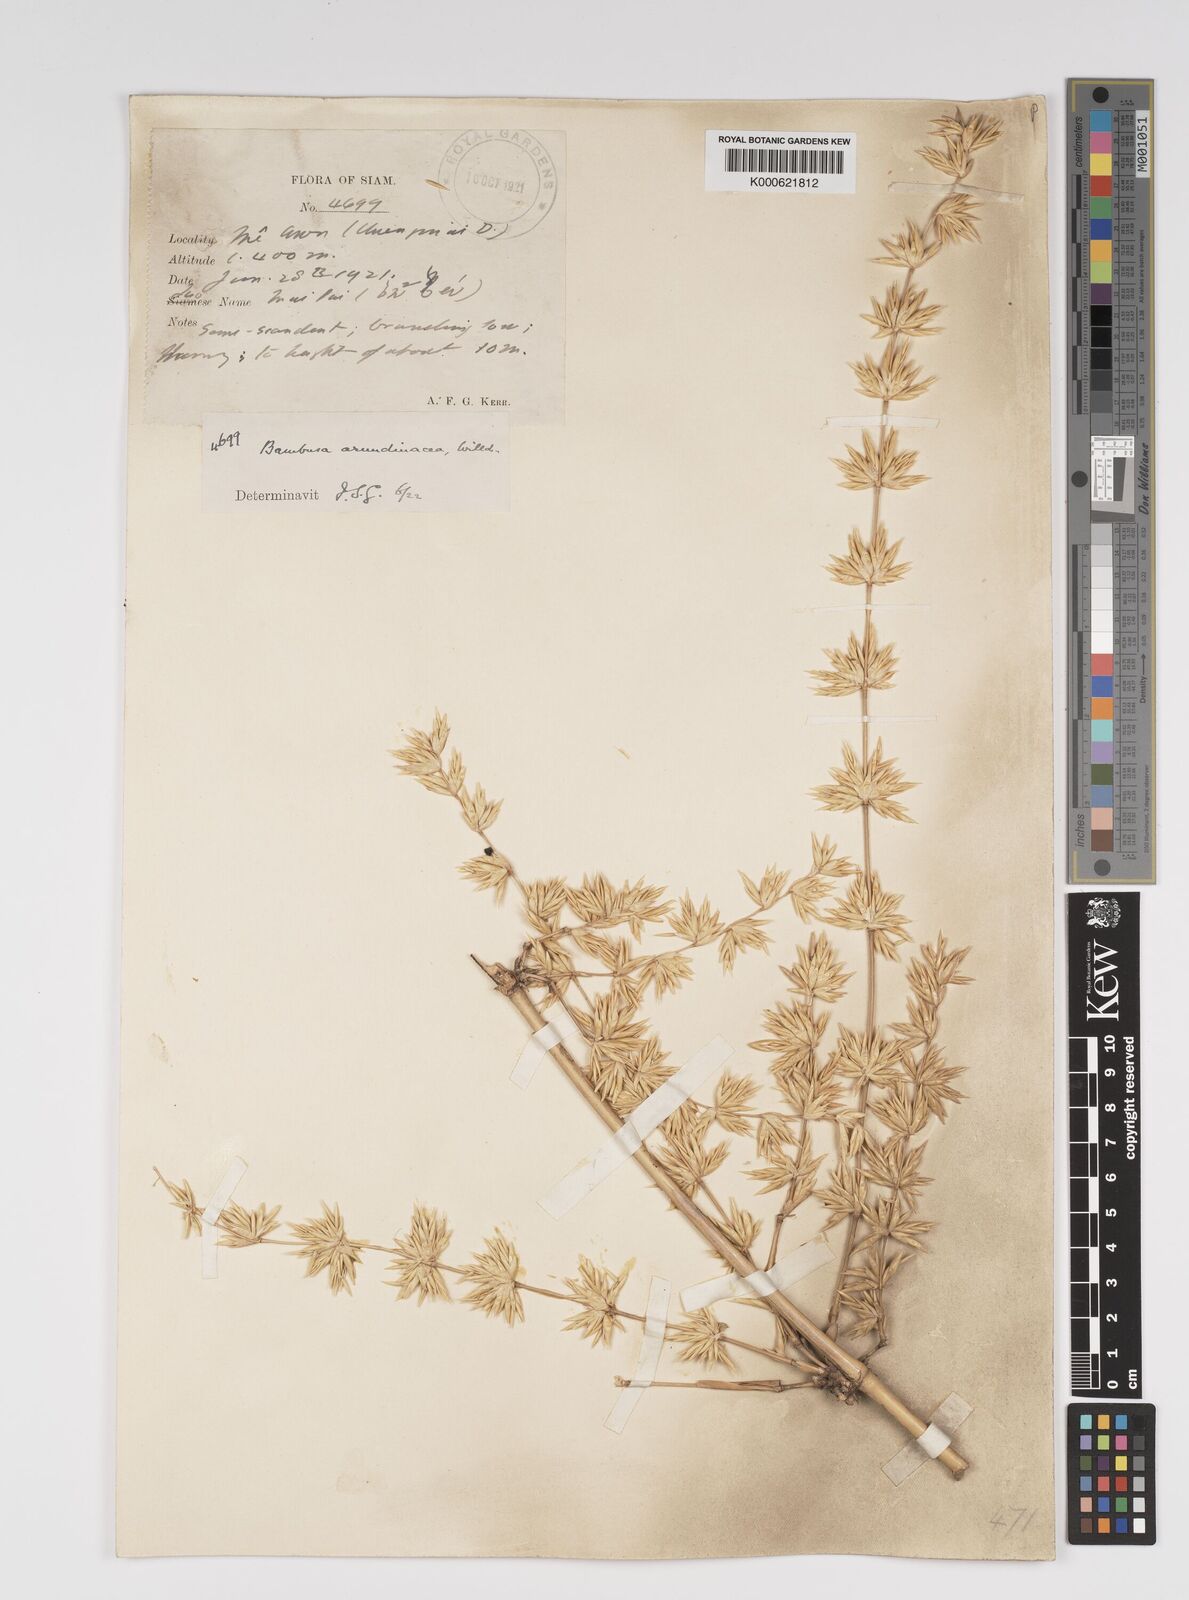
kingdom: Plantae
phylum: Tracheophyta
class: Liliopsida
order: Poales
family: Poaceae
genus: Bambusa
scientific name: Bambusa bambos
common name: Indian thorny bamboo
